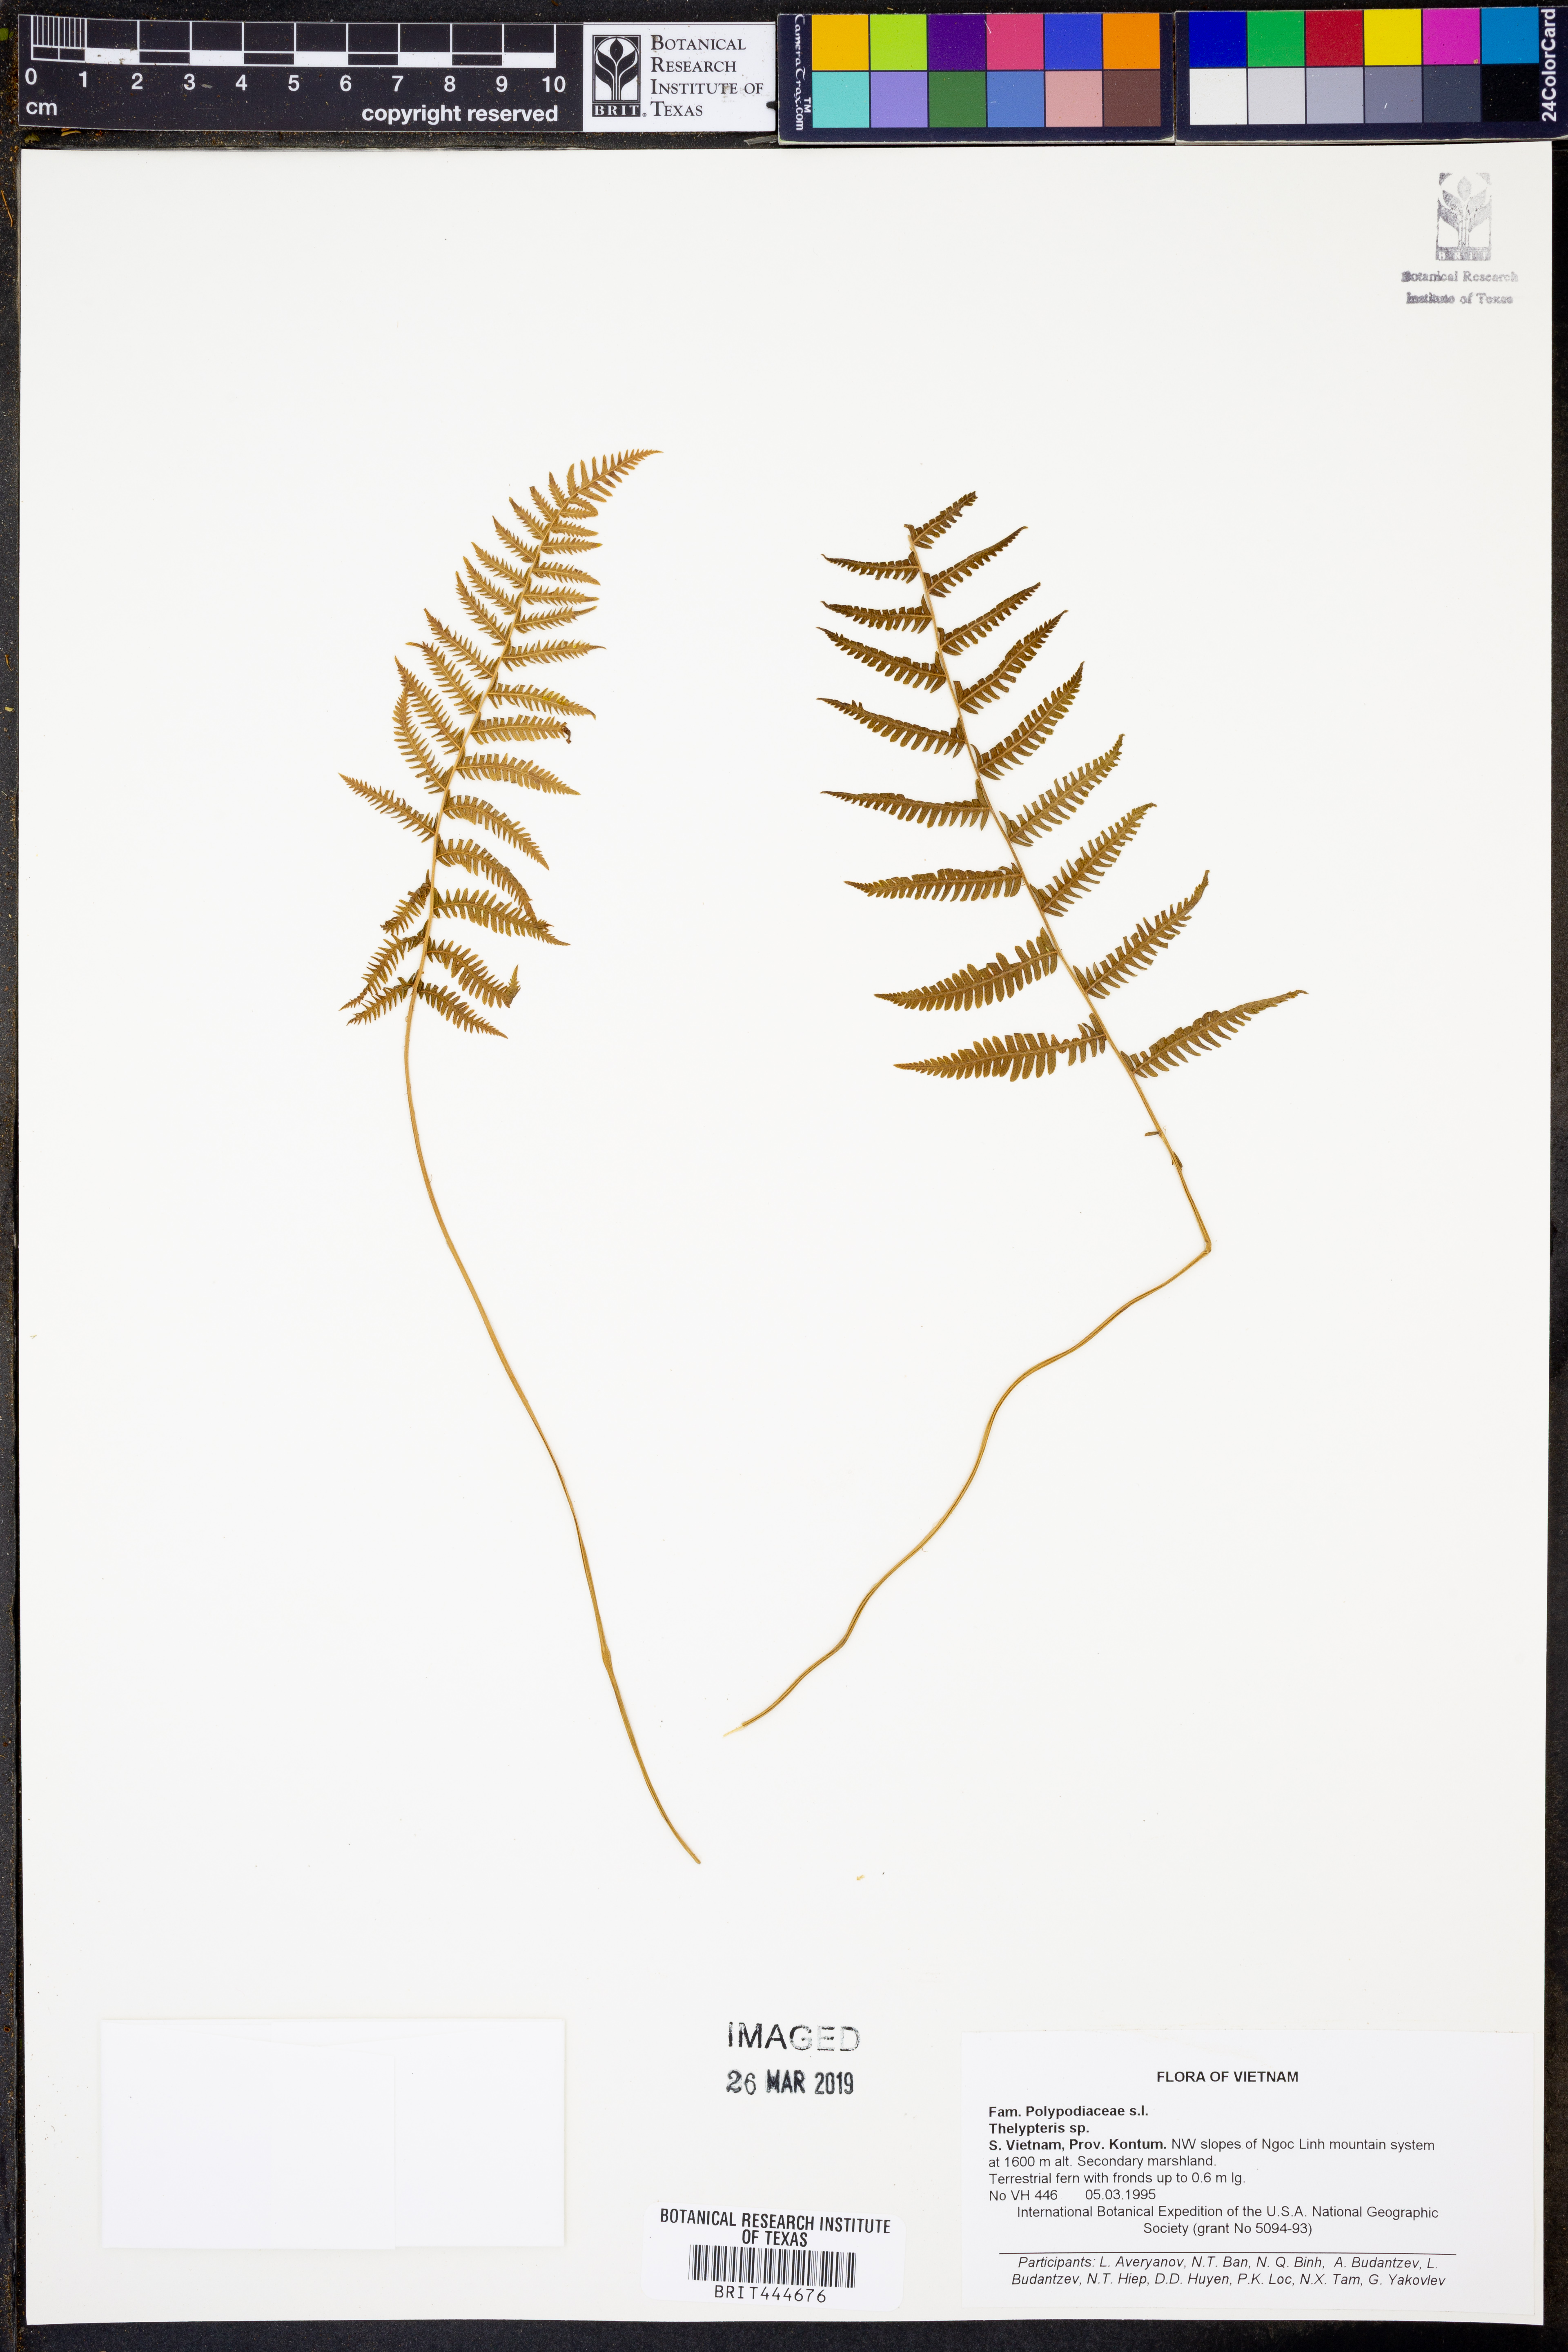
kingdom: Plantae
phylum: Tracheophyta
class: Polypodiopsida
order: Polypodiales
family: Thelypteridaceae
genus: Thelypteris
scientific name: Thelypteris
